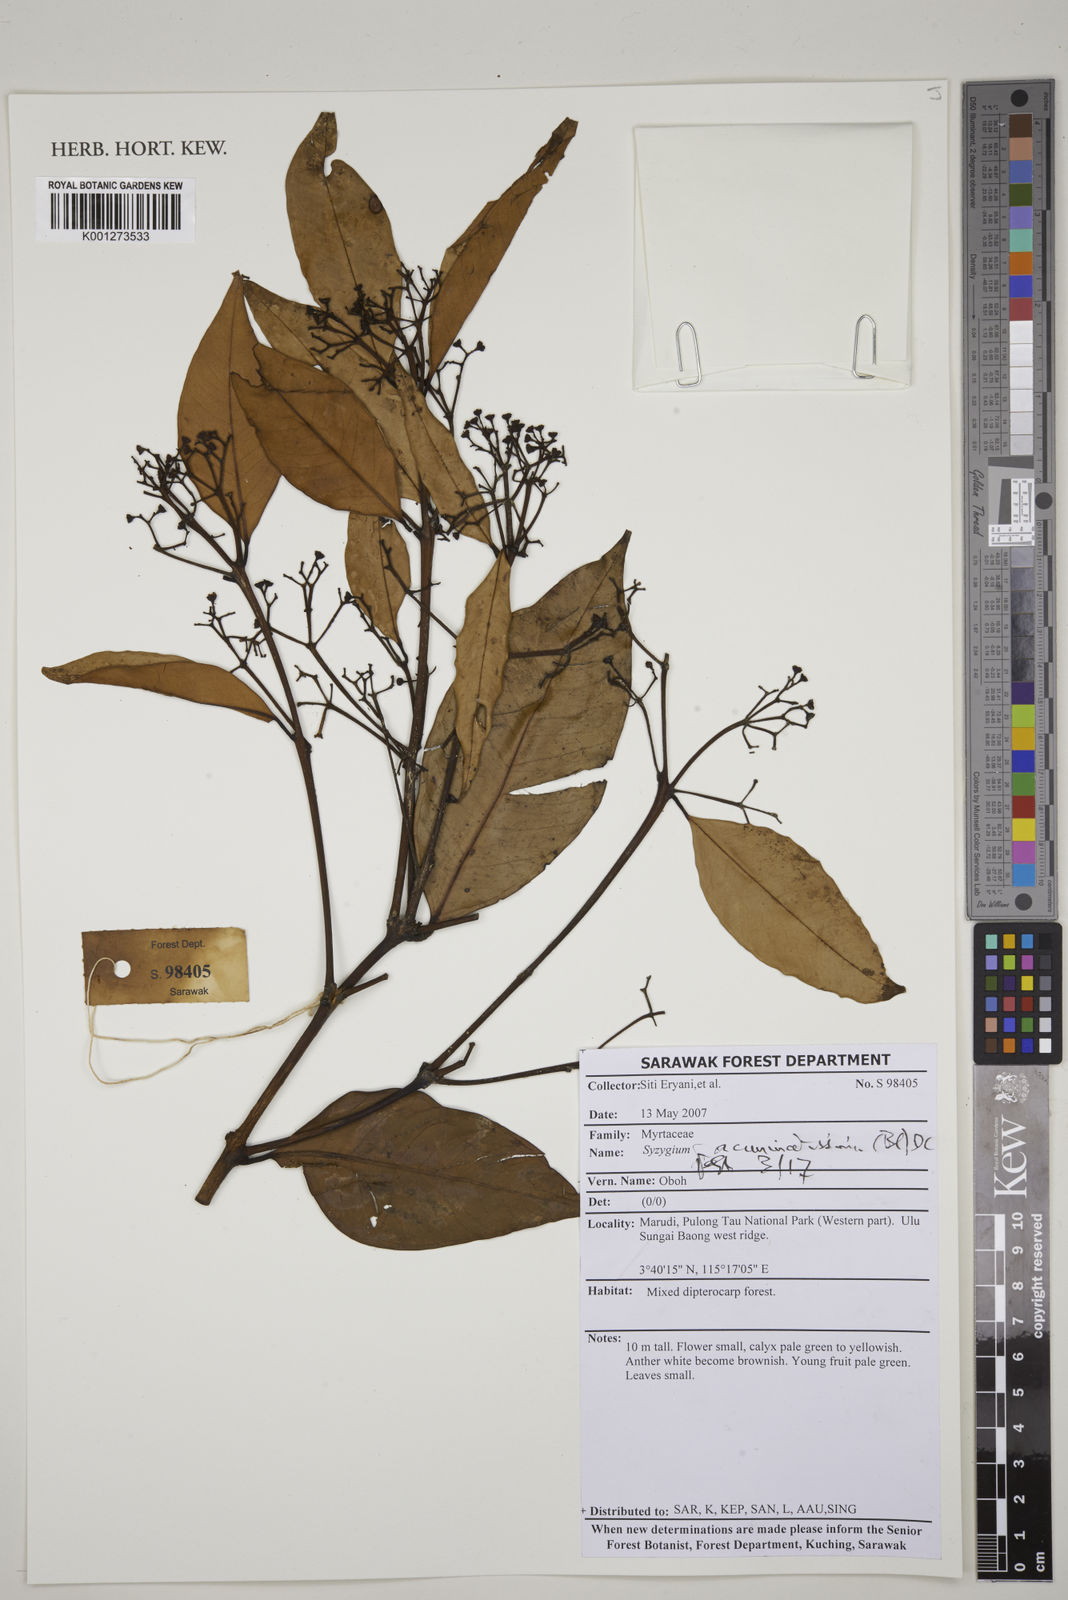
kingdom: Plantae
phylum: Tracheophyta
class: Magnoliopsida
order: Myrtales
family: Myrtaceae
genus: Syzygium
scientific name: Syzygium acuminatissimum
